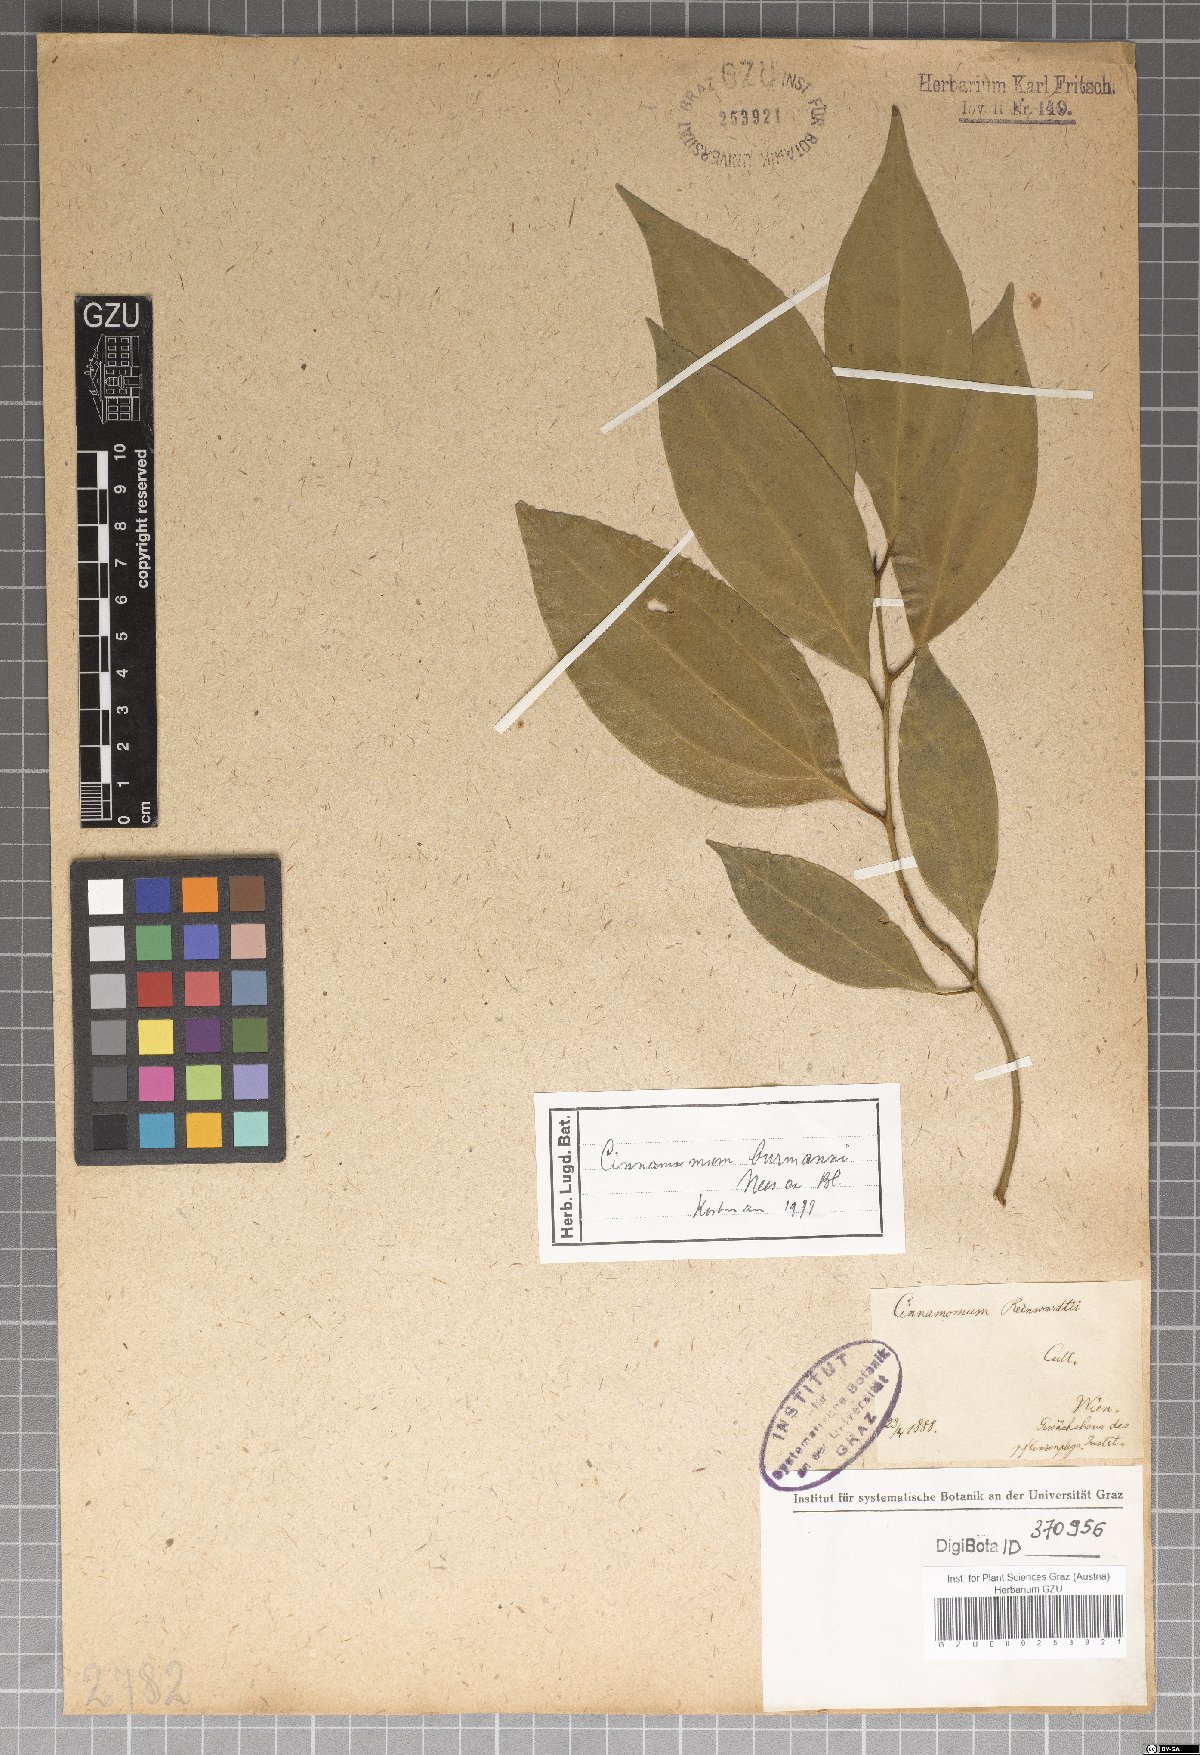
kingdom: Plantae
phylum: Tracheophyta
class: Magnoliopsida
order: Laurales
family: Lauraceae
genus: Cinnamomum
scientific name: Cinnamomum burmanni
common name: Padang cassia
